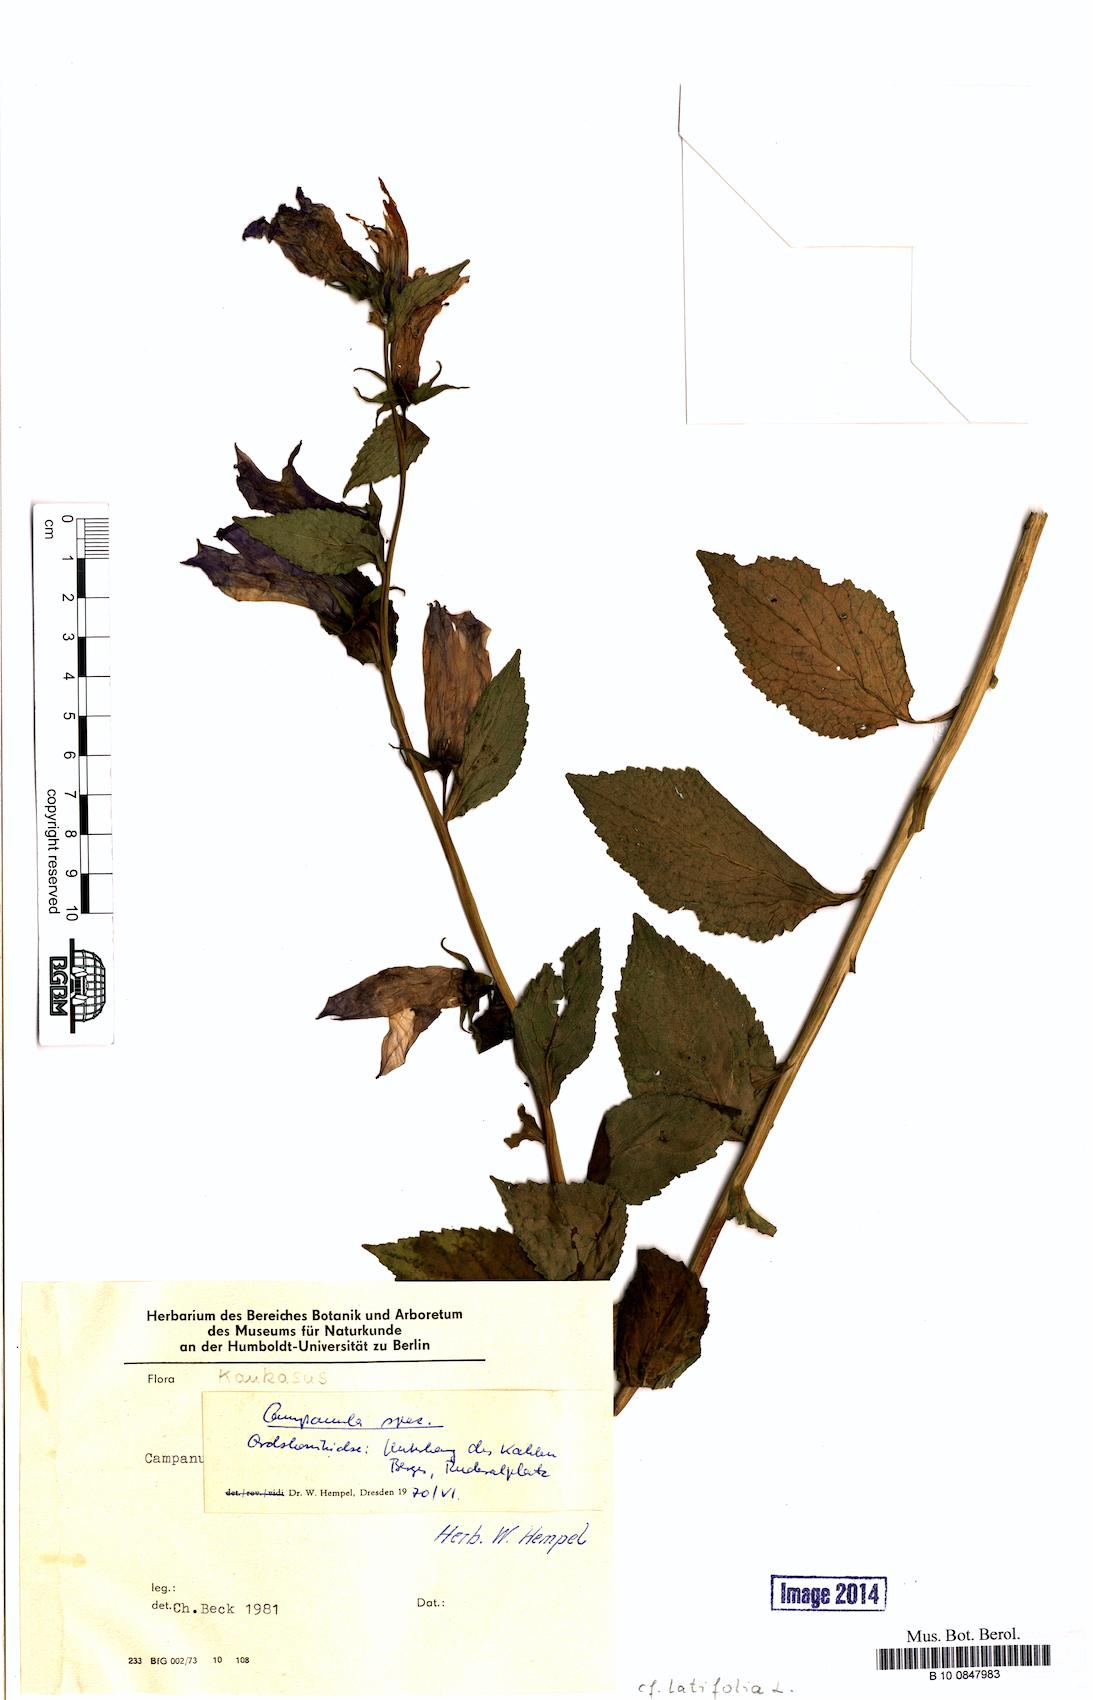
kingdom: Plantae
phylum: Tracheophyta
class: Magnoliopsida
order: Asterales
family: Campanulaceae
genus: Campanula
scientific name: Campanula latifolia
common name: Giant bellflower
